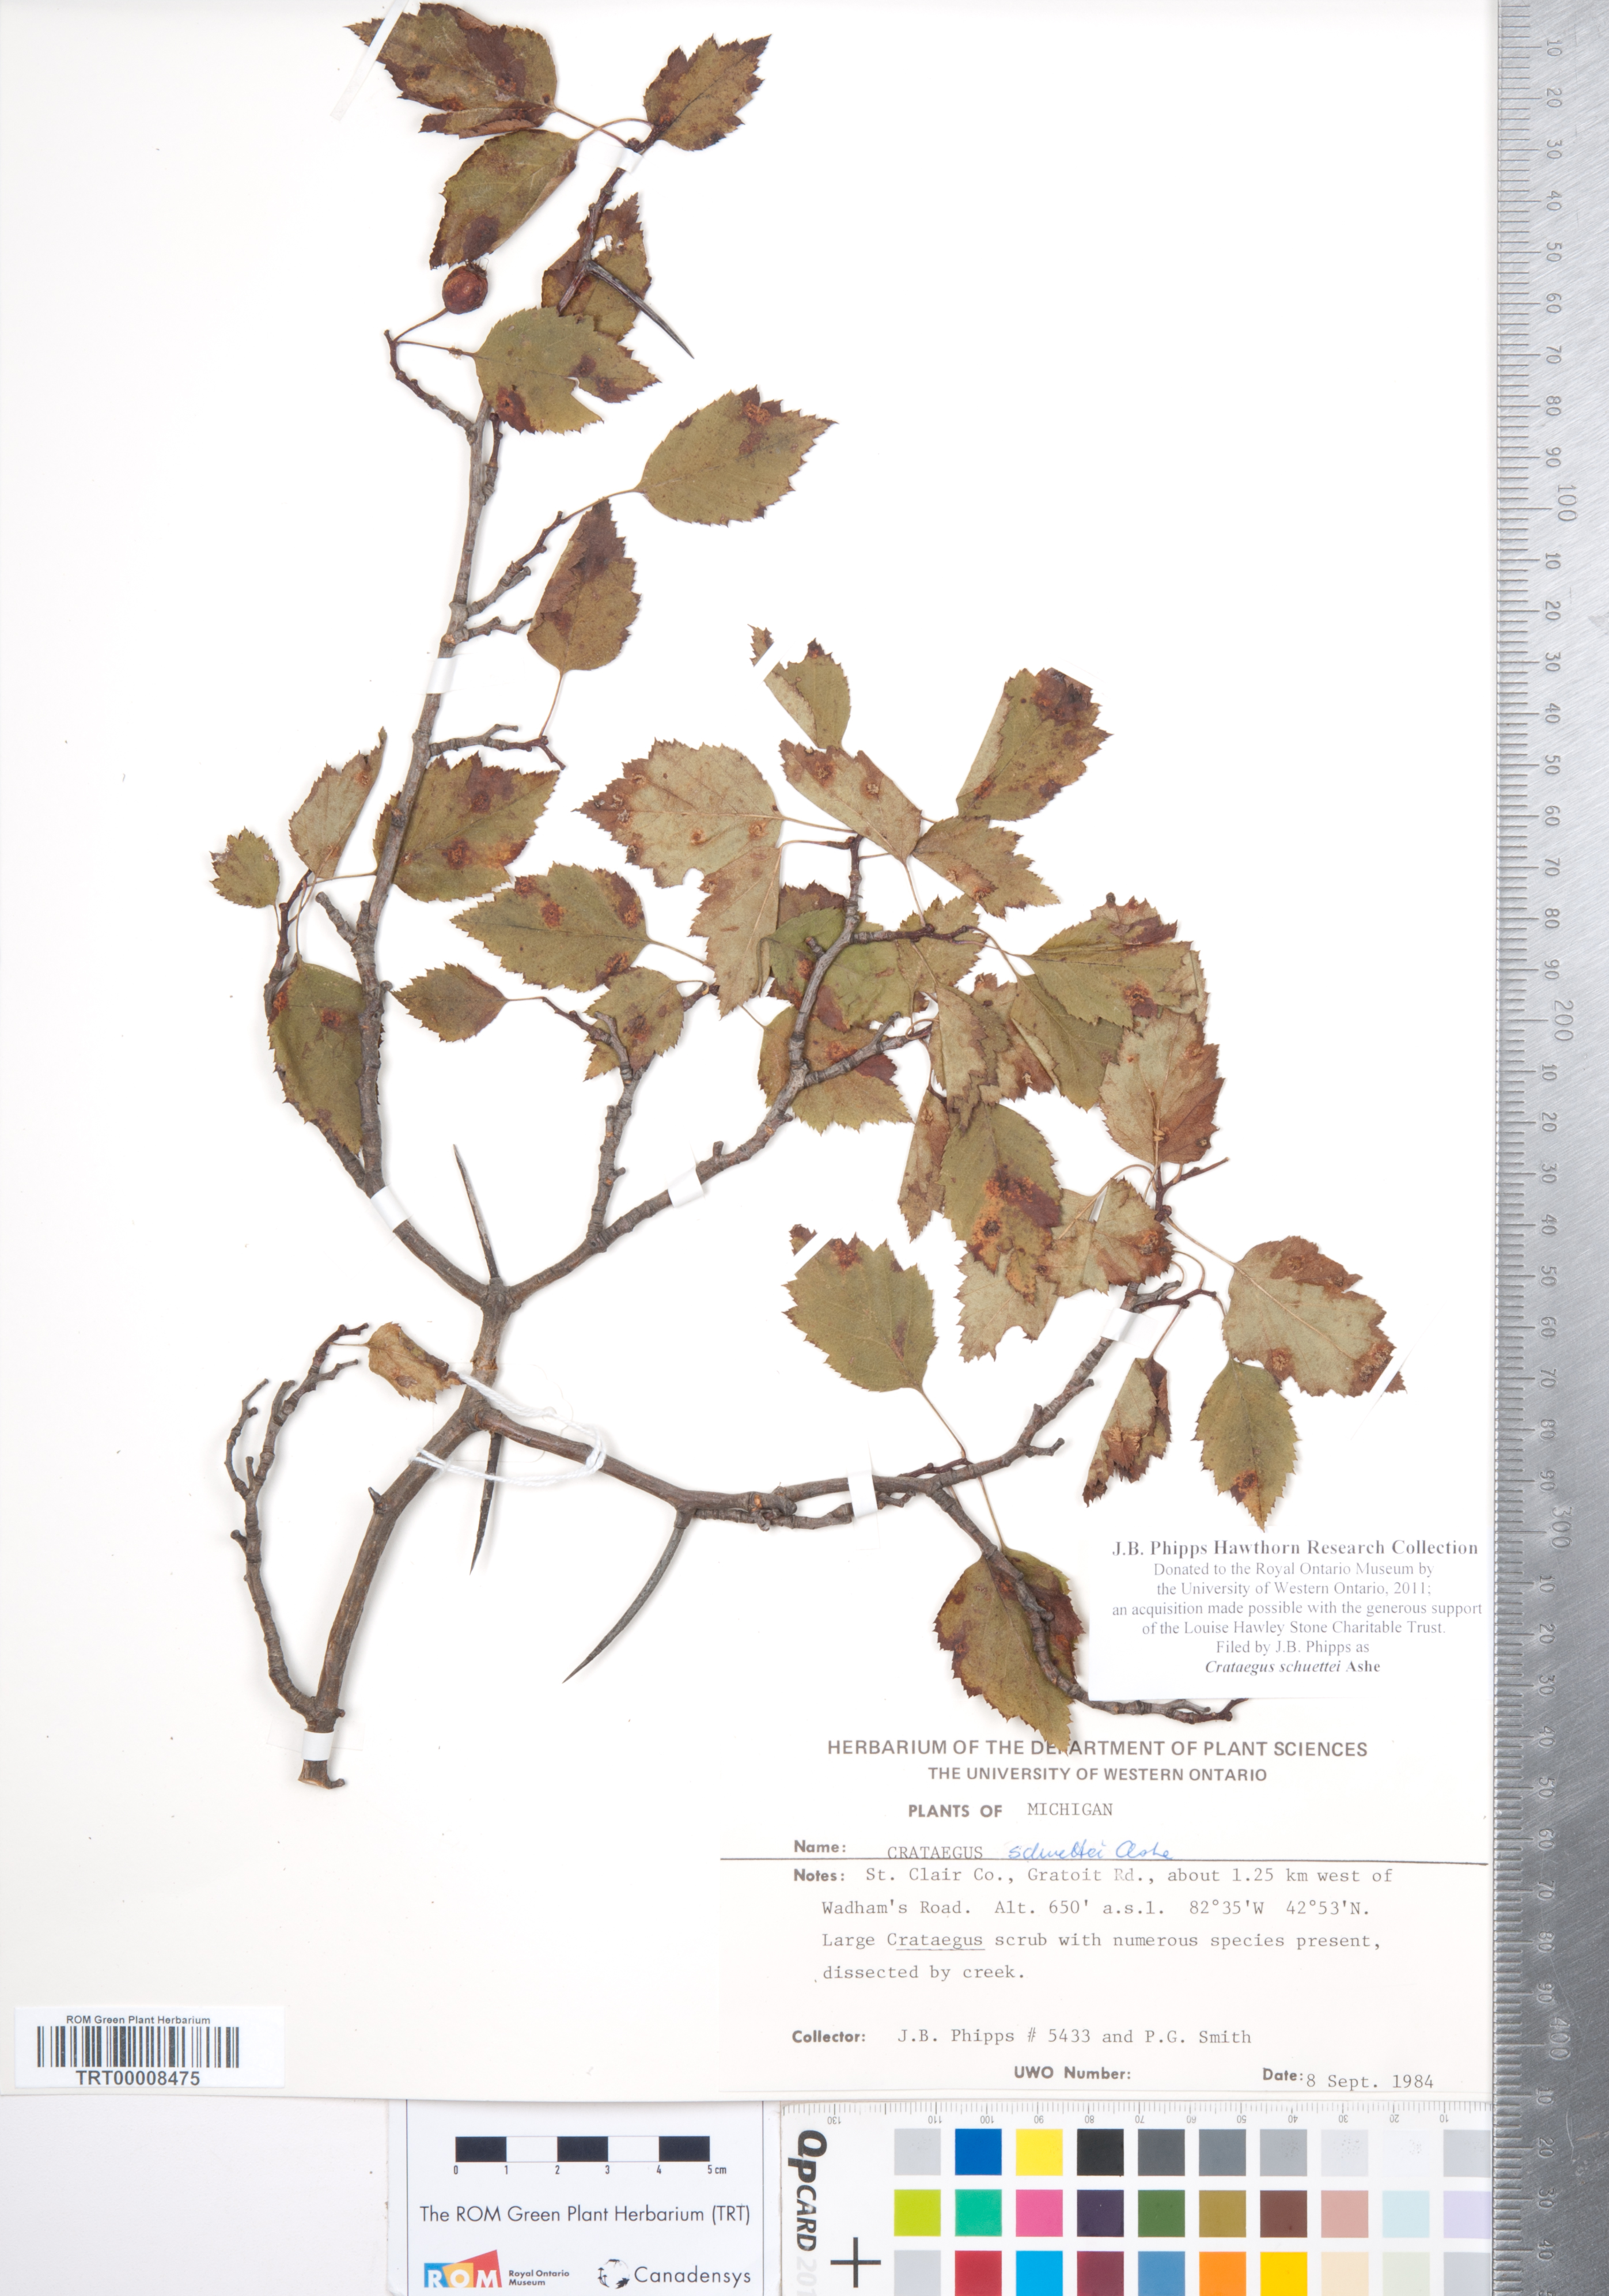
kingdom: Plantae
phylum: Tracheophyta
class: Magnoliopsida
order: Rosales
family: Rosaceae
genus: Crataegus
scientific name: Crataegus schuettei
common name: Schuette's hawthorn
